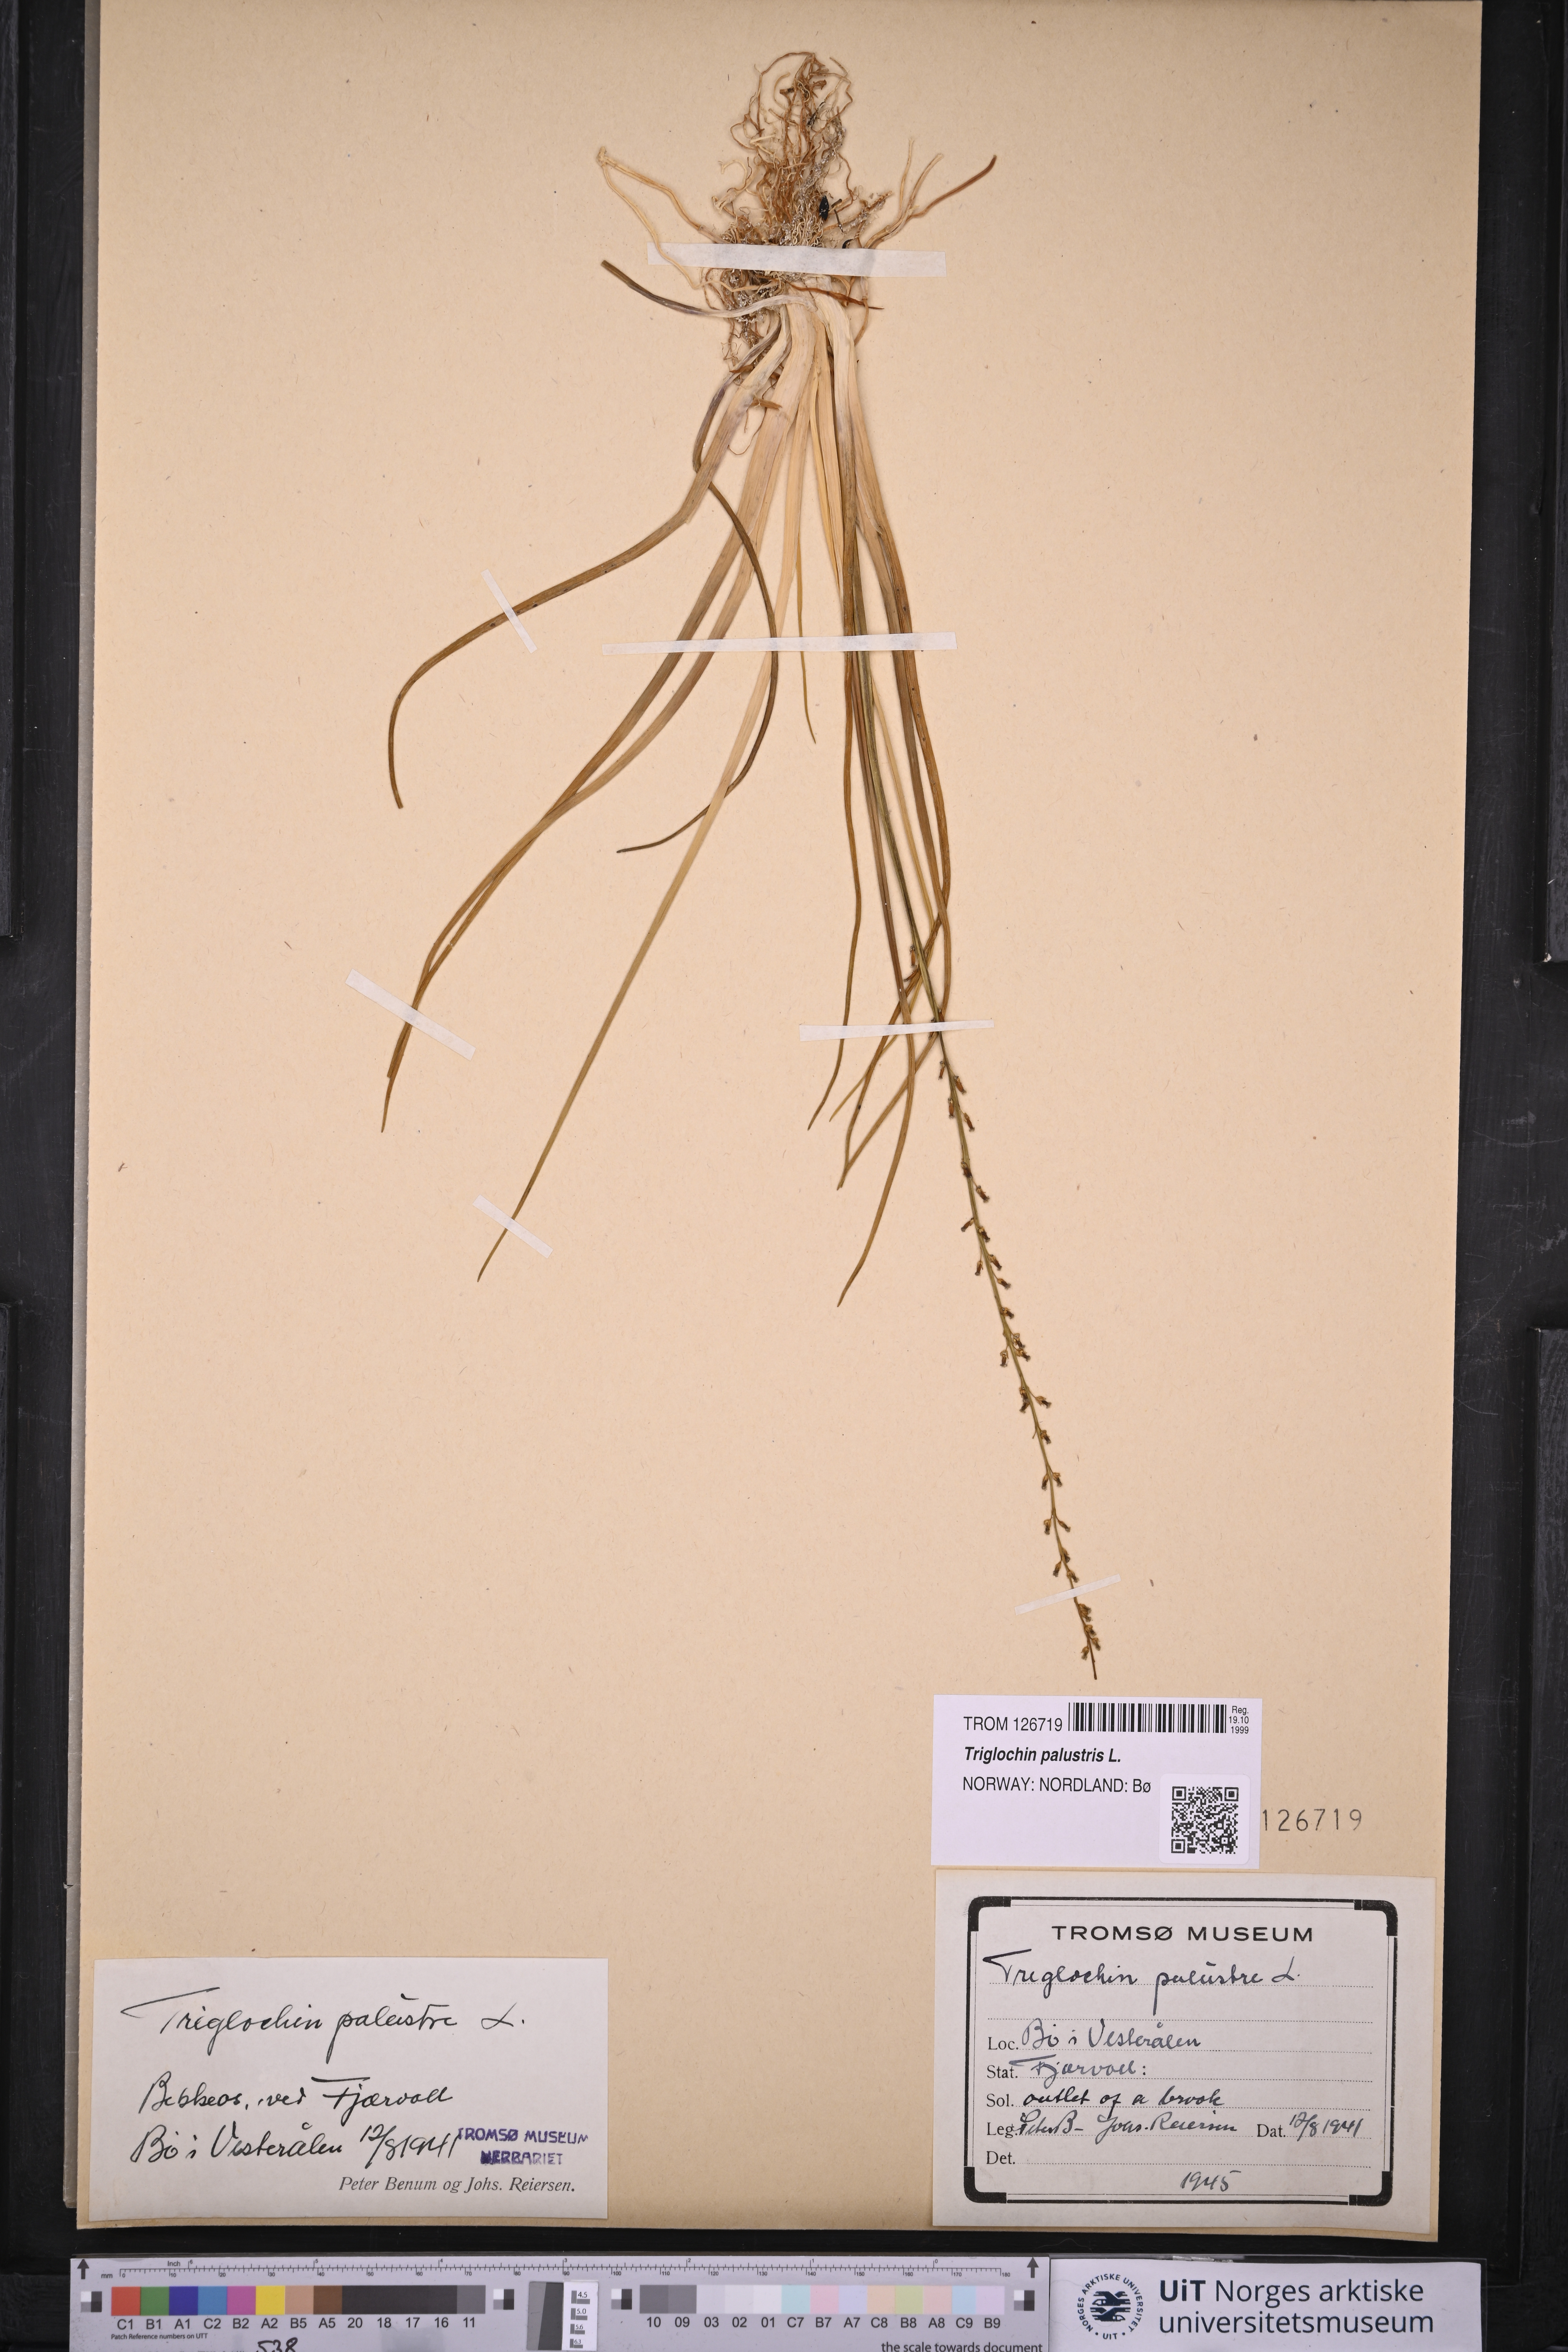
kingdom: Plantae
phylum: Tracheophyta
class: Liliopsida
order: Alismatales
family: Juncaginaceae
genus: Triglochin
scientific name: Triglochin palustris
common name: Marsh arrowgrass
